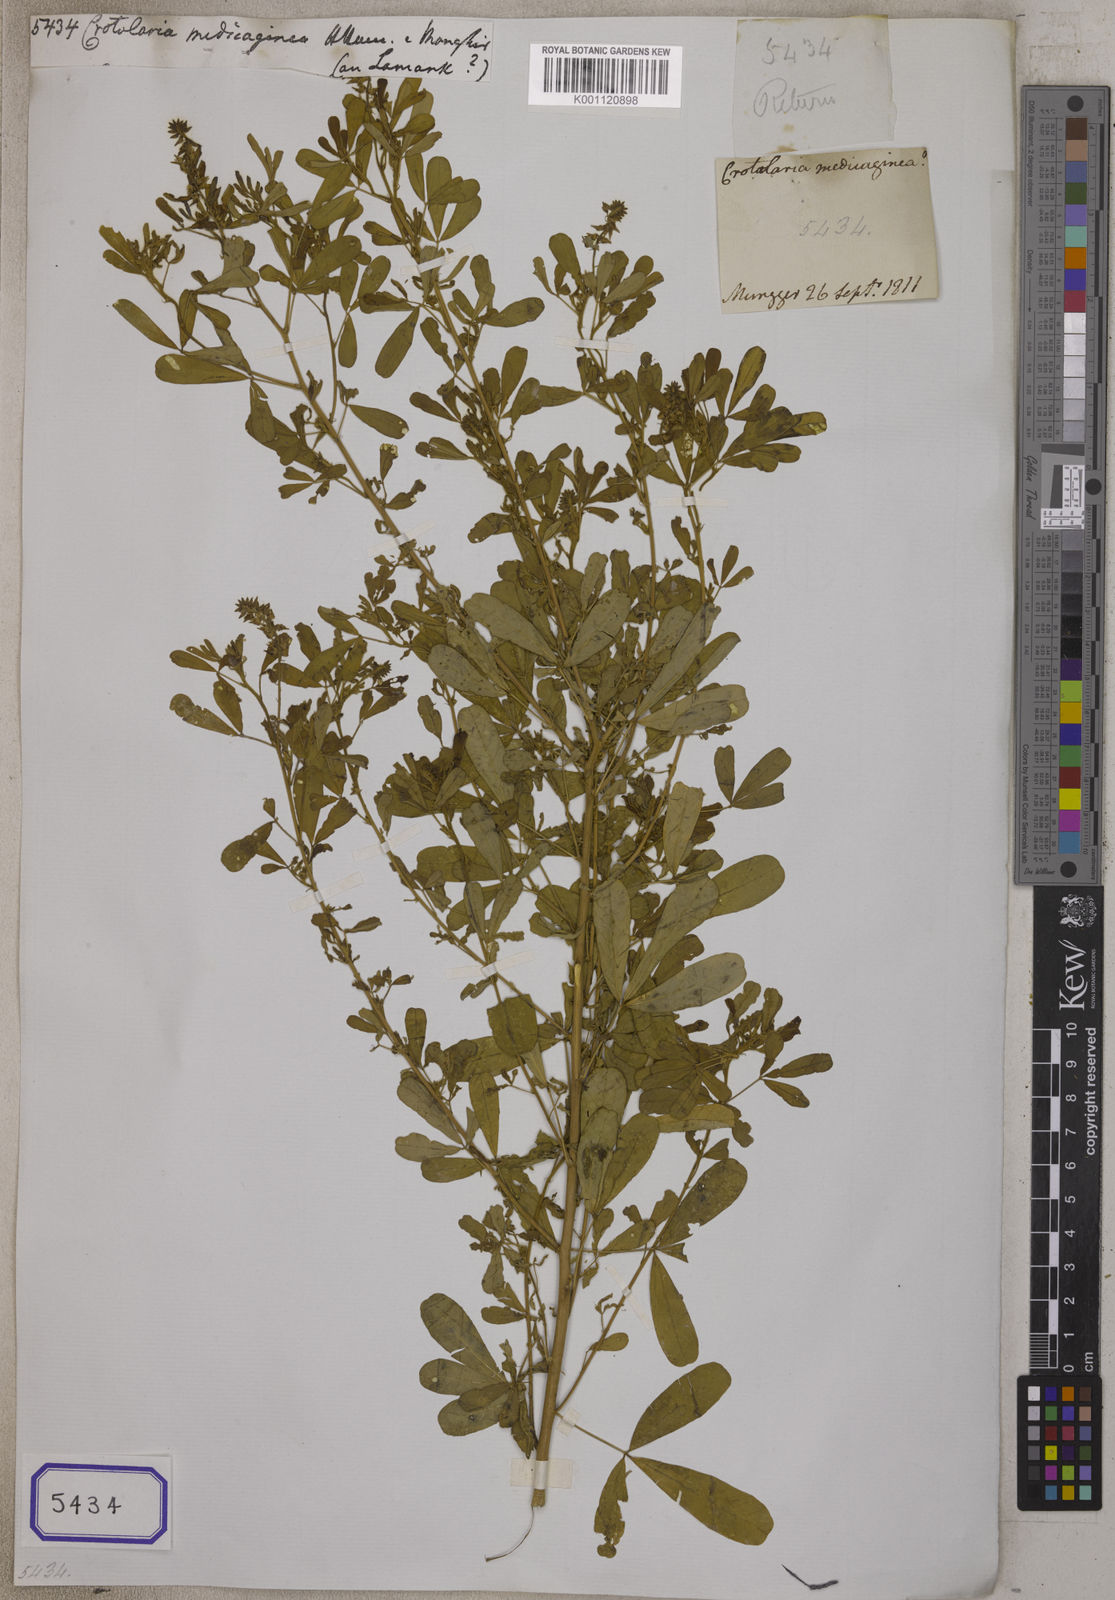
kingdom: Plantae
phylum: Tracheophyta
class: Magnoliopsida
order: Fabales
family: Fabaceae
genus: Crotalaria
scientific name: Crotalaria medicaginea
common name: Trefoil rattlepod
